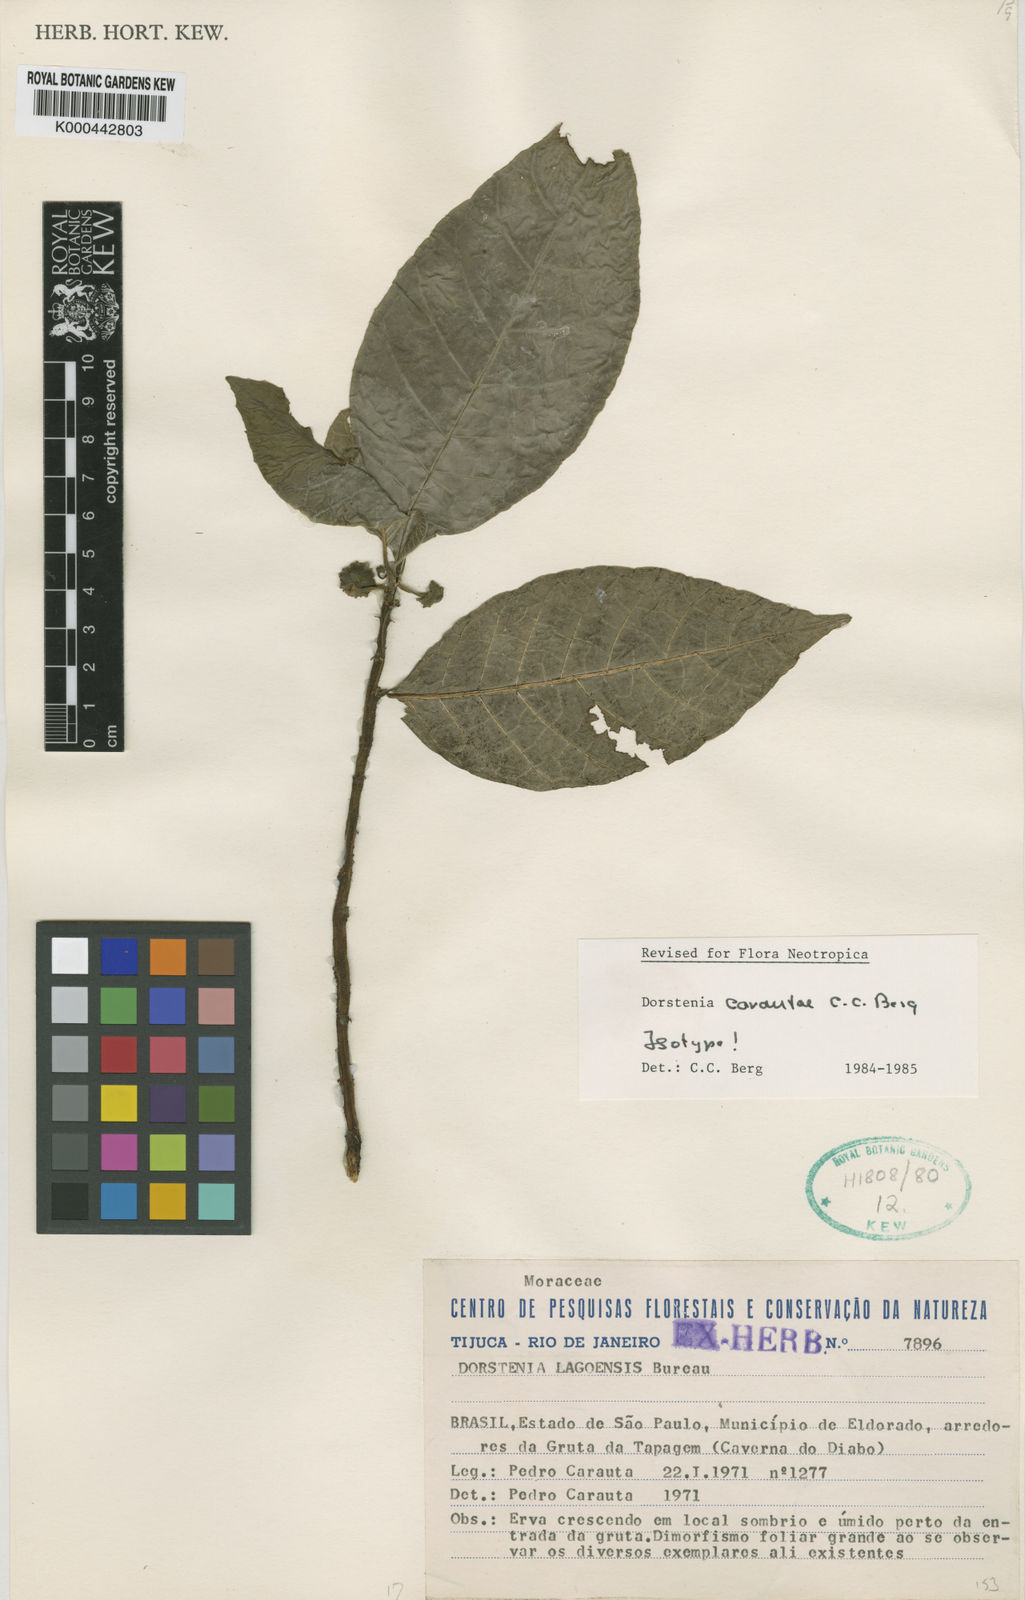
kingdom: Plantae
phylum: Tracheophyta
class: Magnoliopsida
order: Rosales
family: Moraceae
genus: Dorstenia
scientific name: Dorstenia carautae
